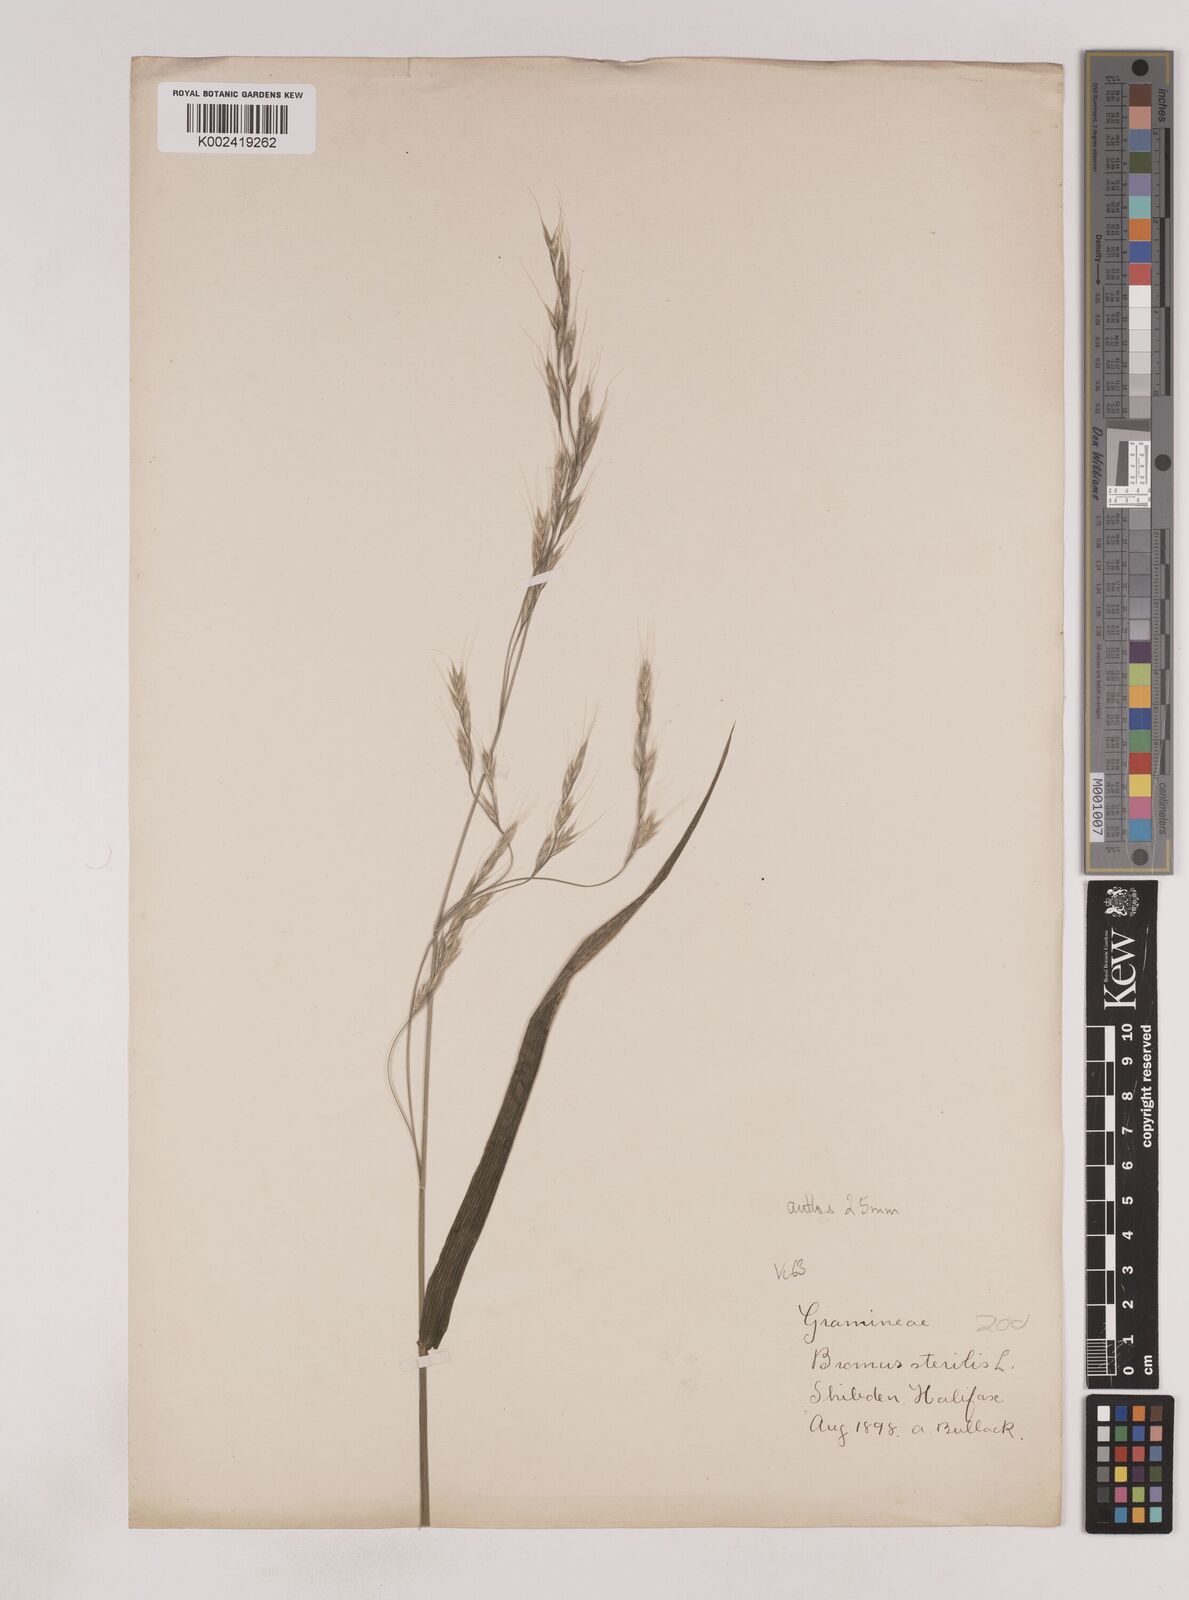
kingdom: Plantae
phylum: Tracheophyta
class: Liliopsida
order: Poales
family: Poaceae
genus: Lolium
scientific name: Lolium giganteum
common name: Giant fescue
